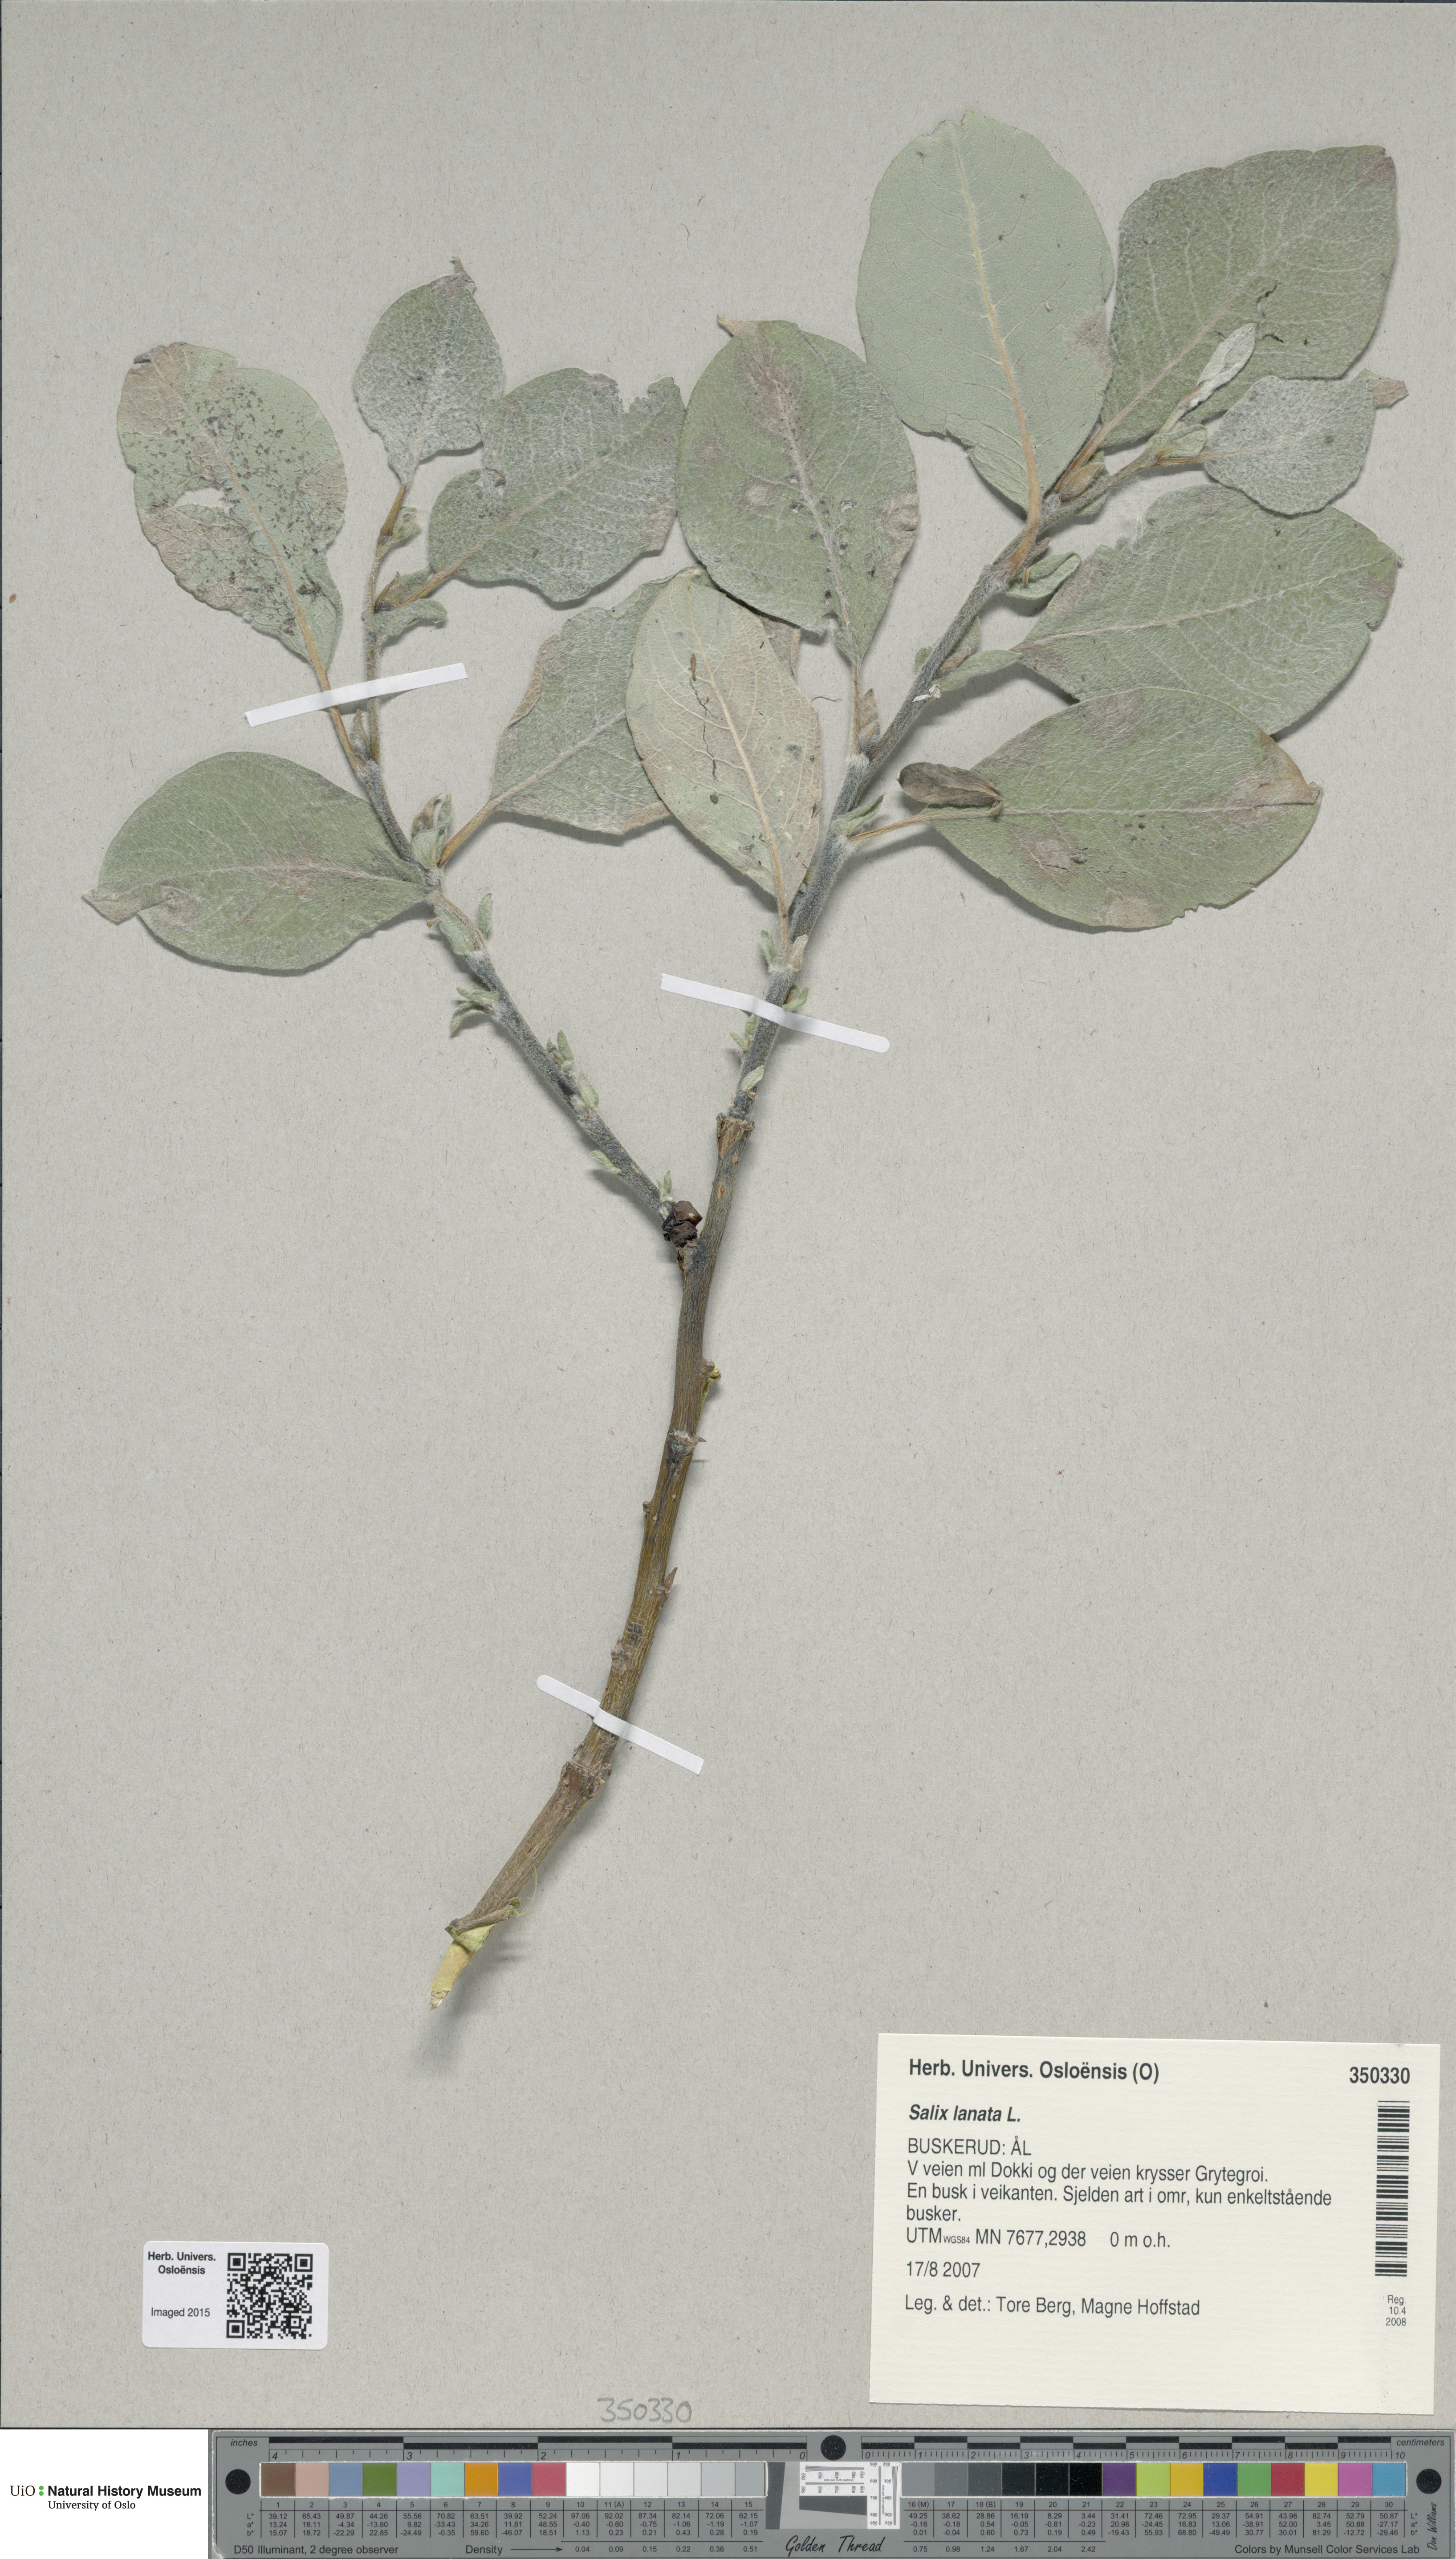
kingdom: Plantae
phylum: Tracheophyta
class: Magnoliopsida
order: Malpighiales
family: Salicaceae
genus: Salix
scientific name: Salix lanata
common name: Woolly willow
